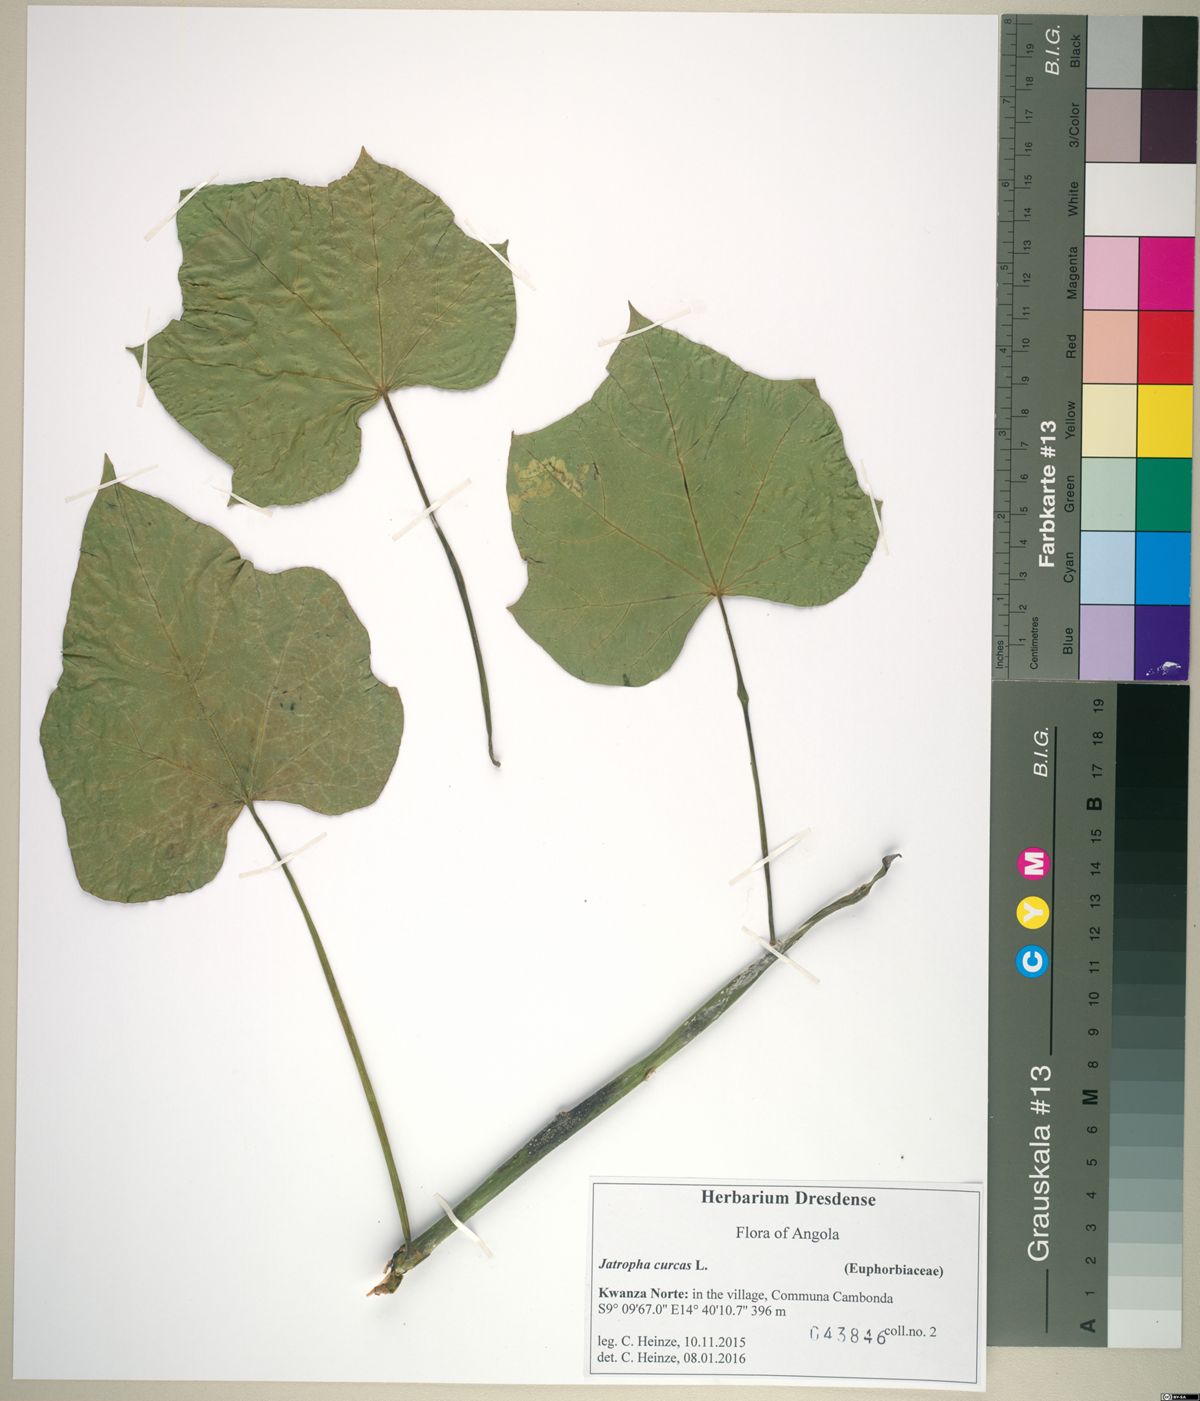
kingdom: Plantae
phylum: Tracheophyta
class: Magnoliopsida
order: Malpighiales
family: Euphorbiaceae
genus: Jatropha
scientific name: Jatropha curcas
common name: Barbados nut
